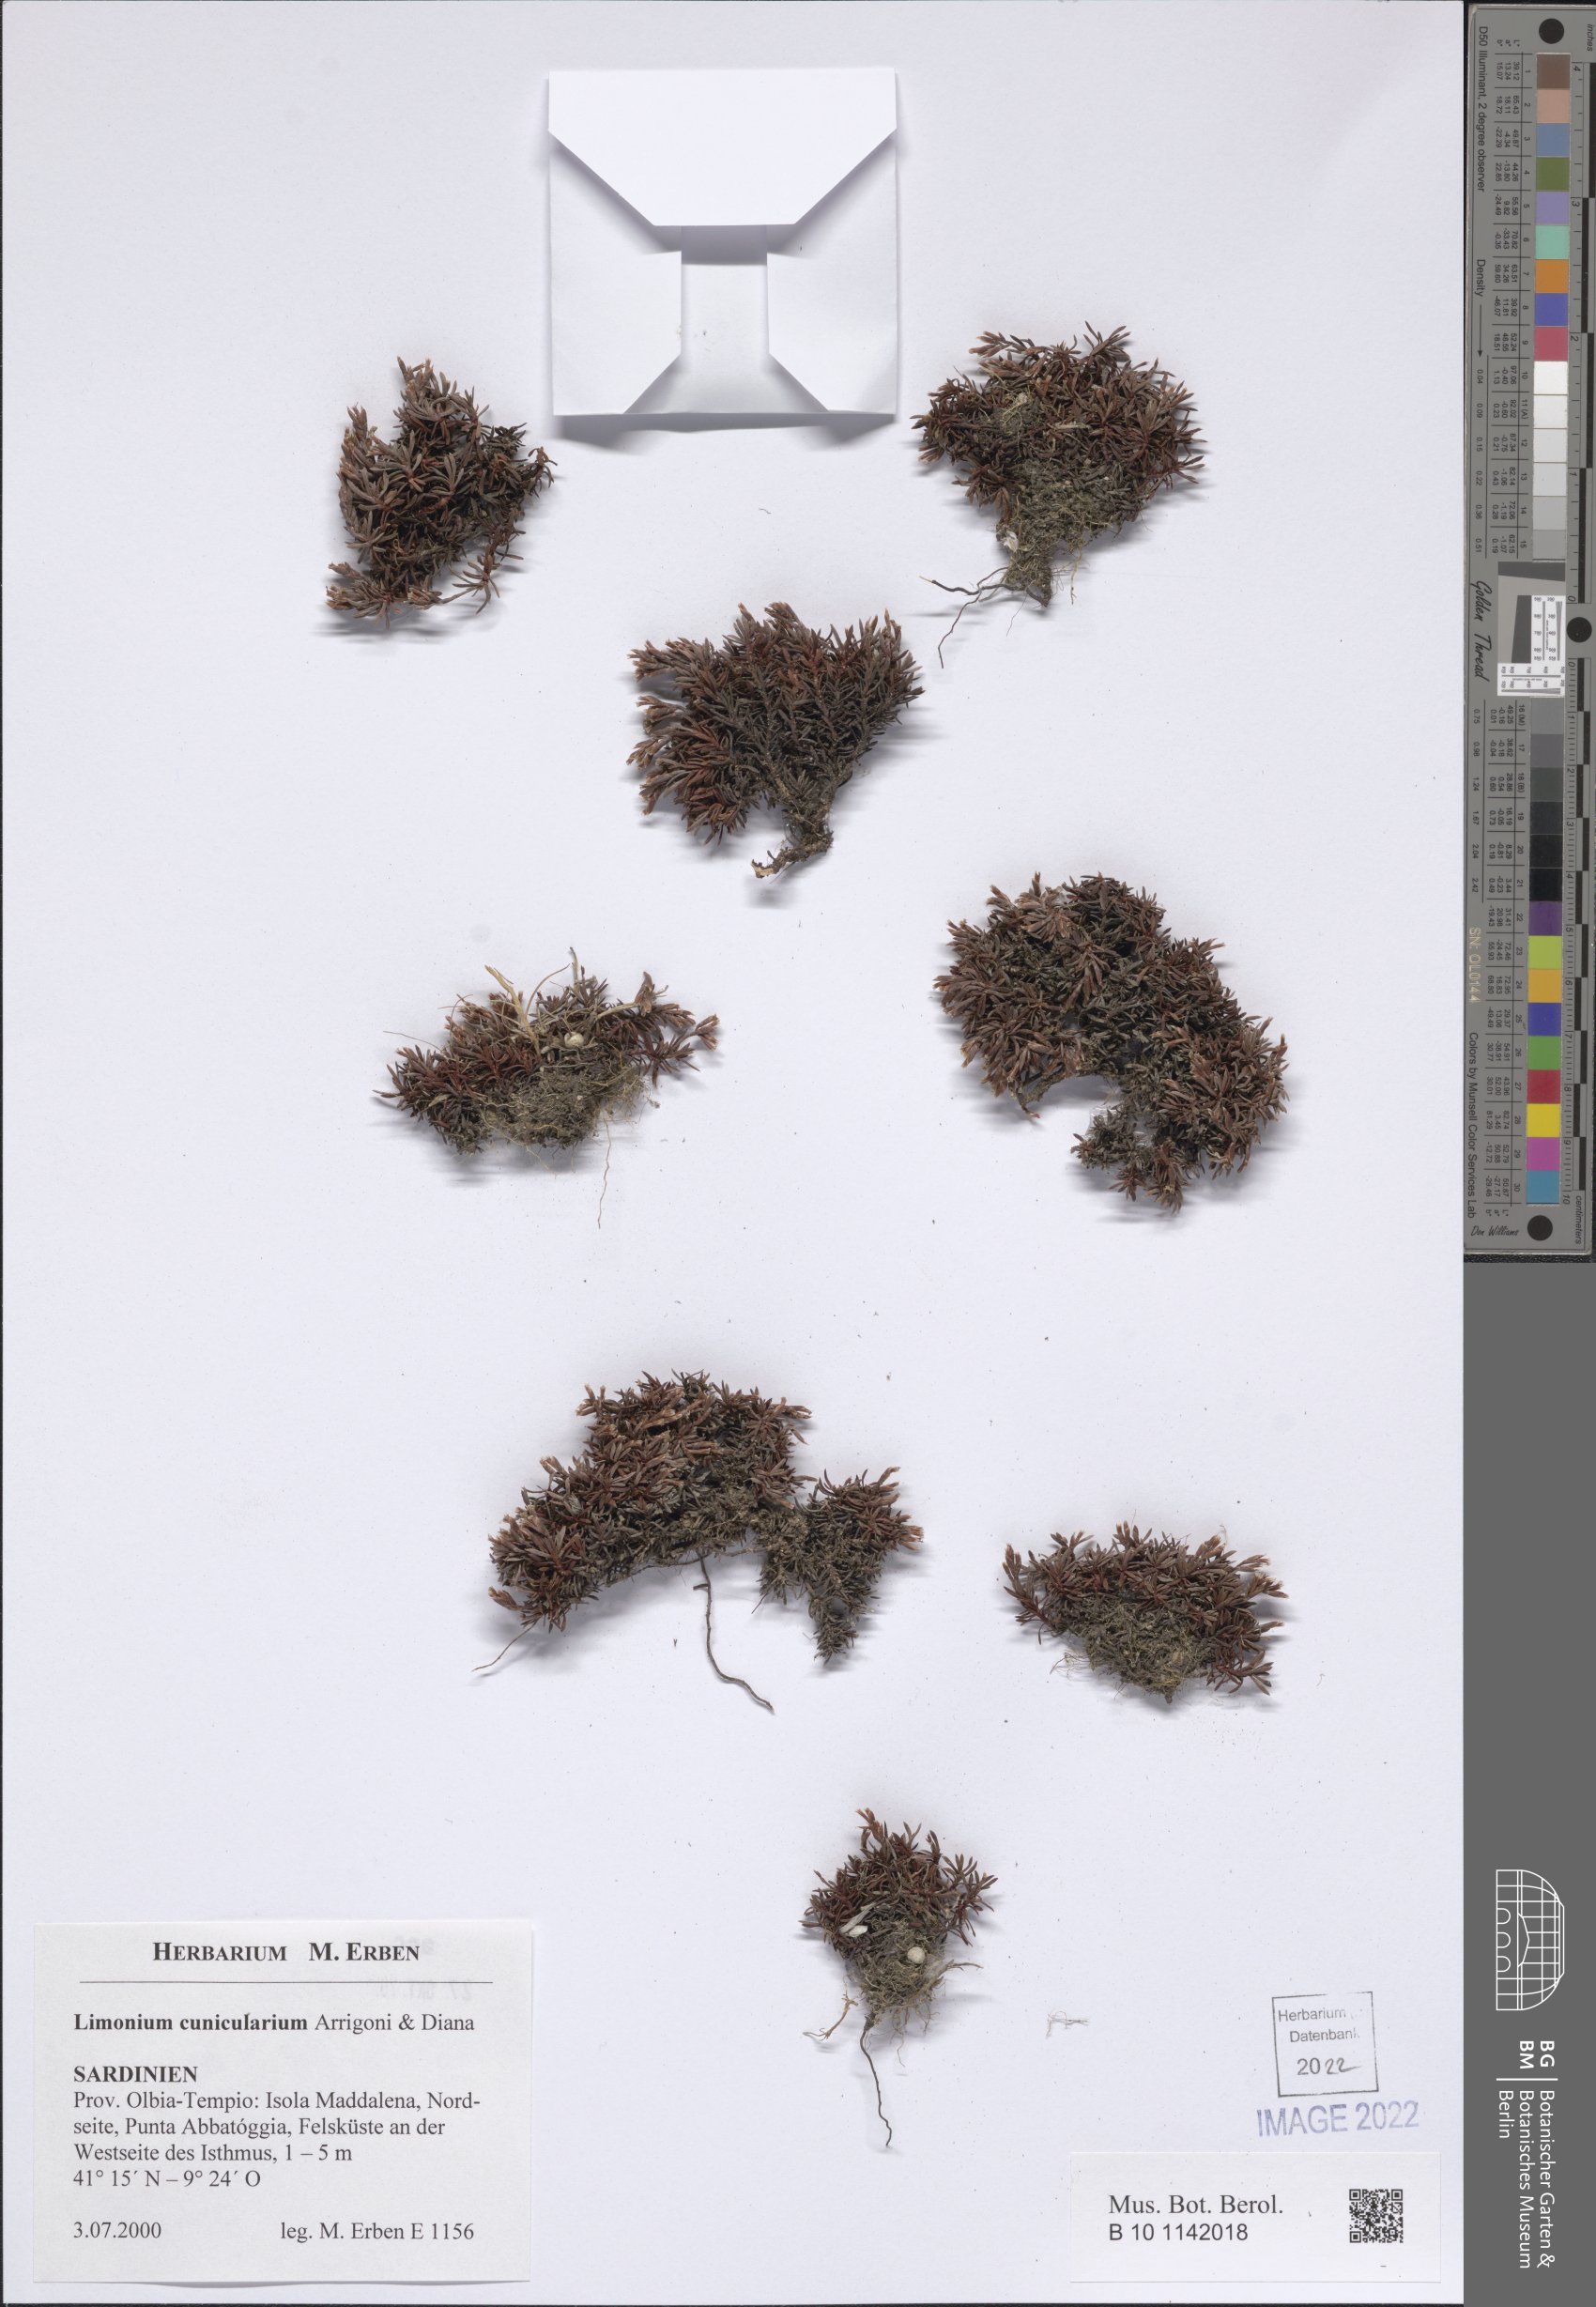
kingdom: Plantae
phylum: Tracheophyta
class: Magnoliopsida
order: Caryophyllales
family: Plumbaginaceae
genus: Limonium
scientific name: Limonium cunicularium
